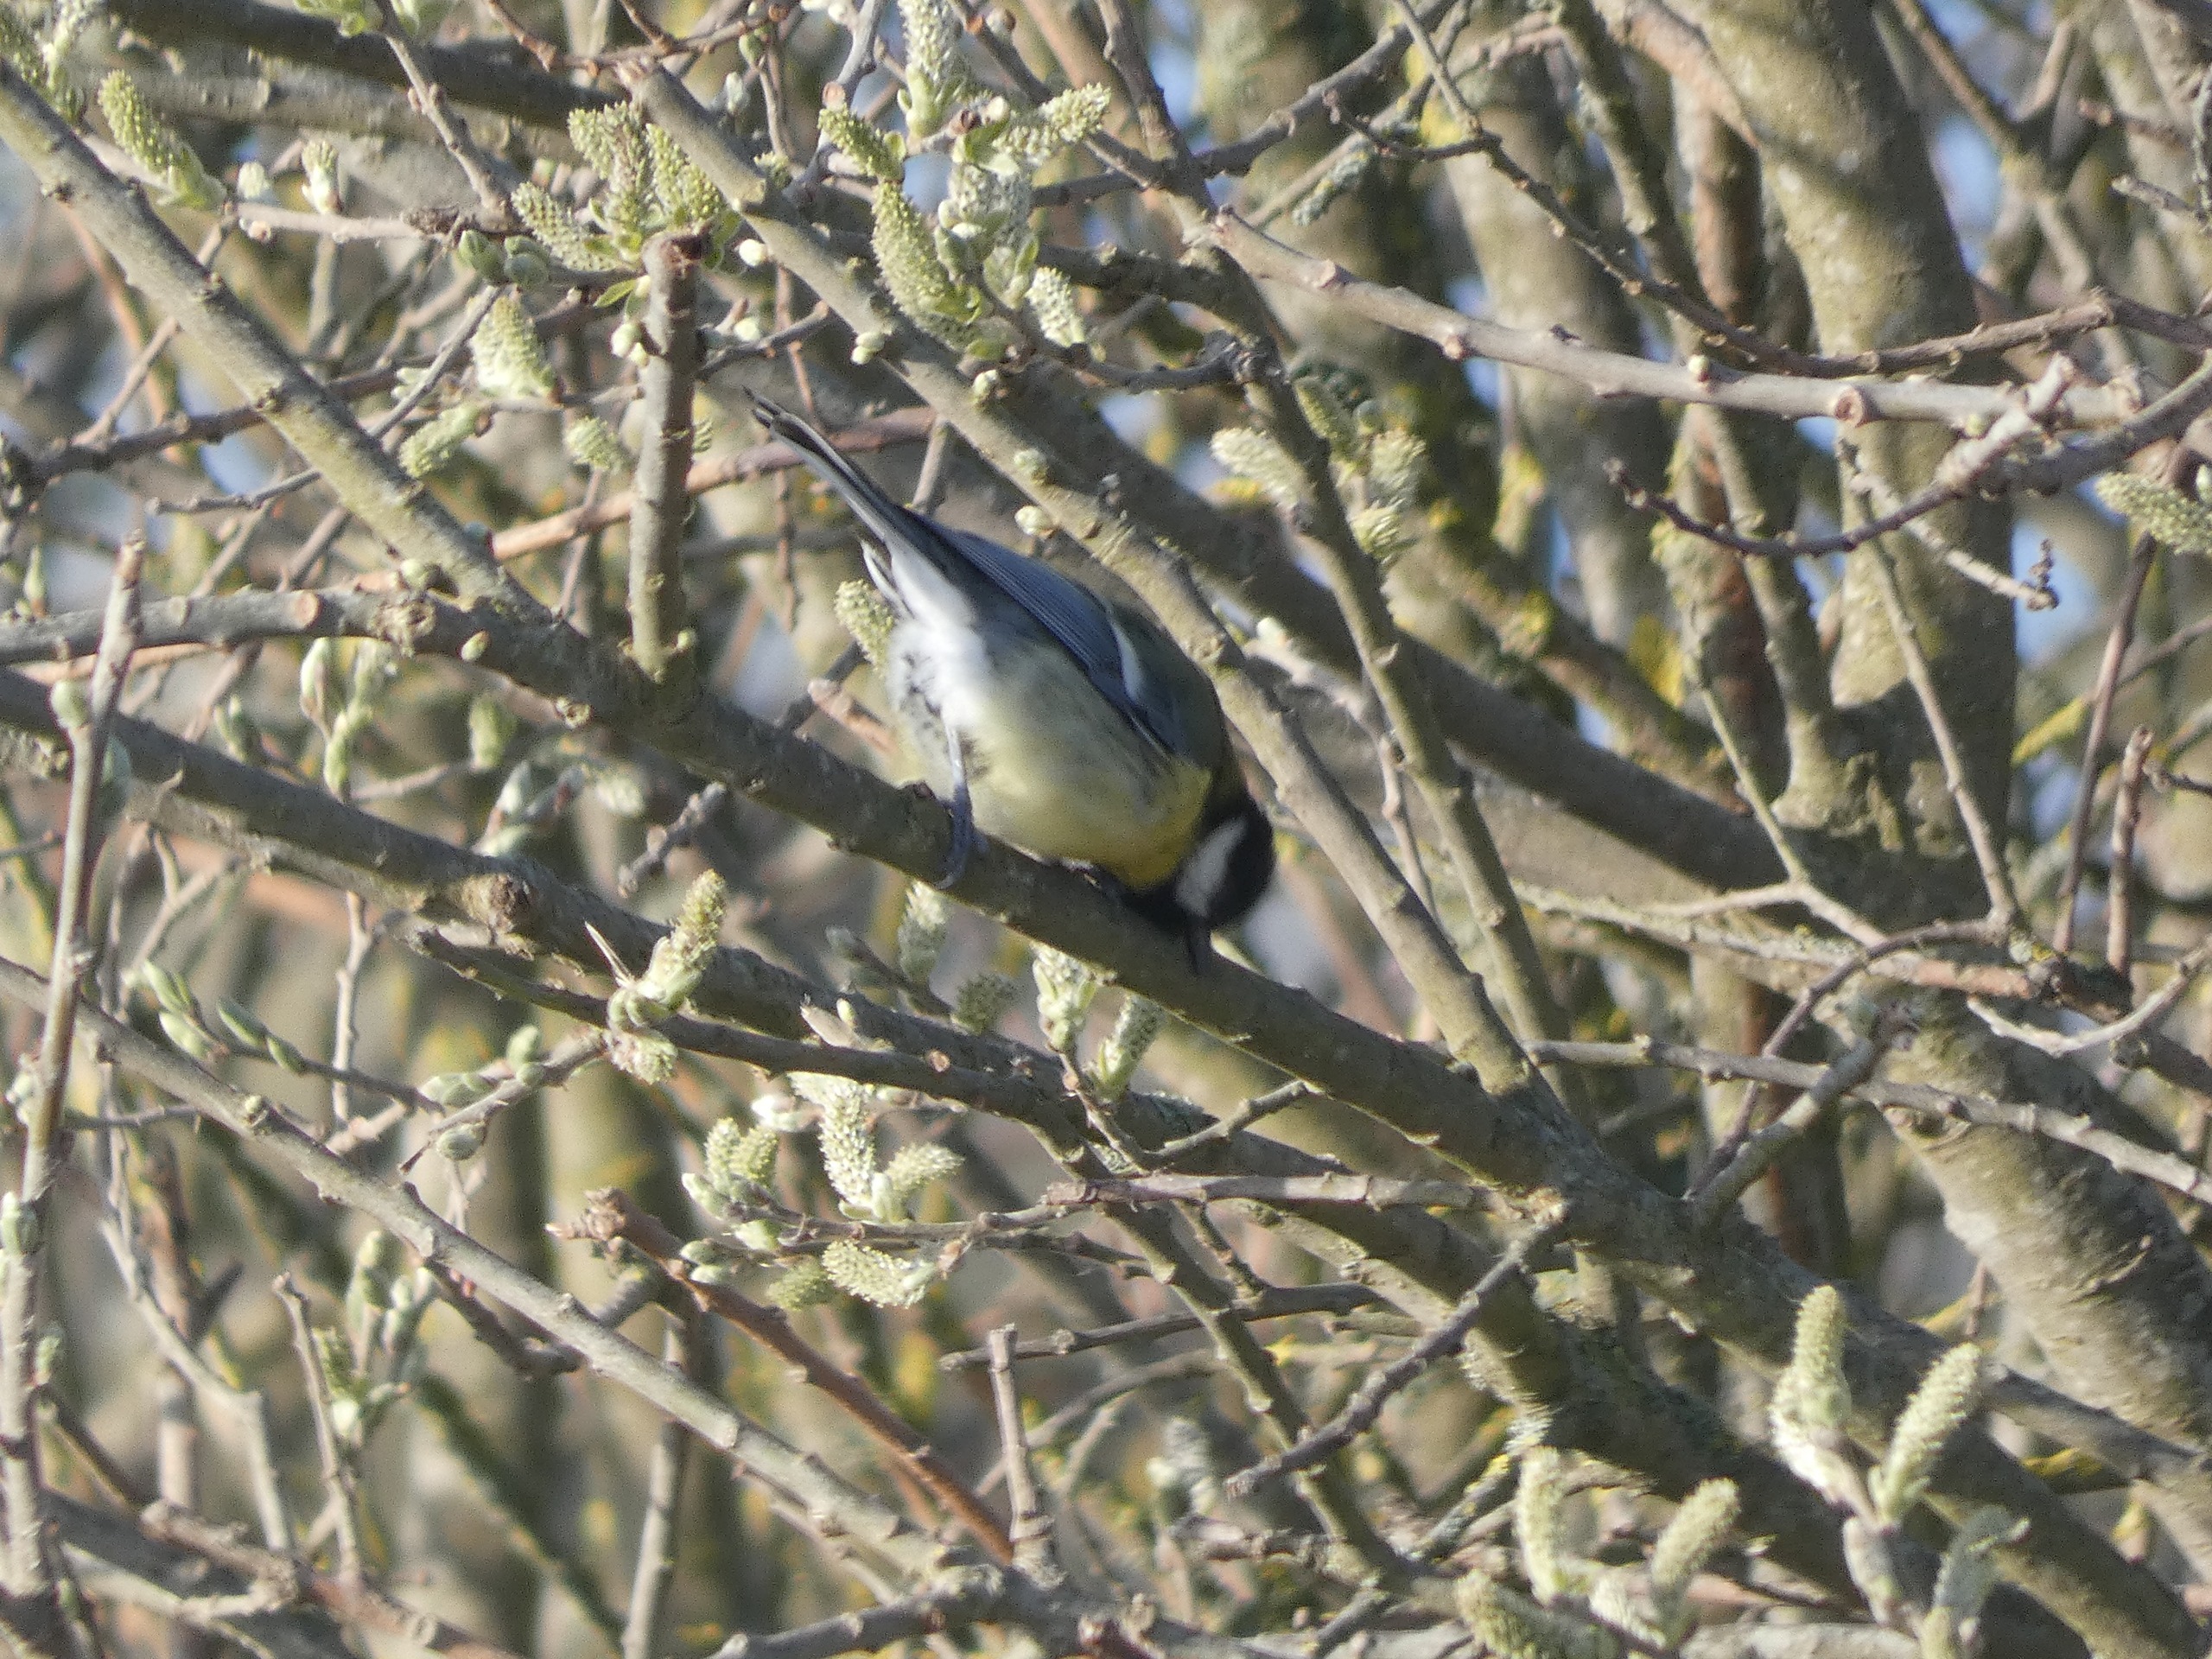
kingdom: Animalia
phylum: Chordata
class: Aves
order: Passeriformes
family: Paridae
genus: Parus
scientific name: Parus major
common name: Musvit
